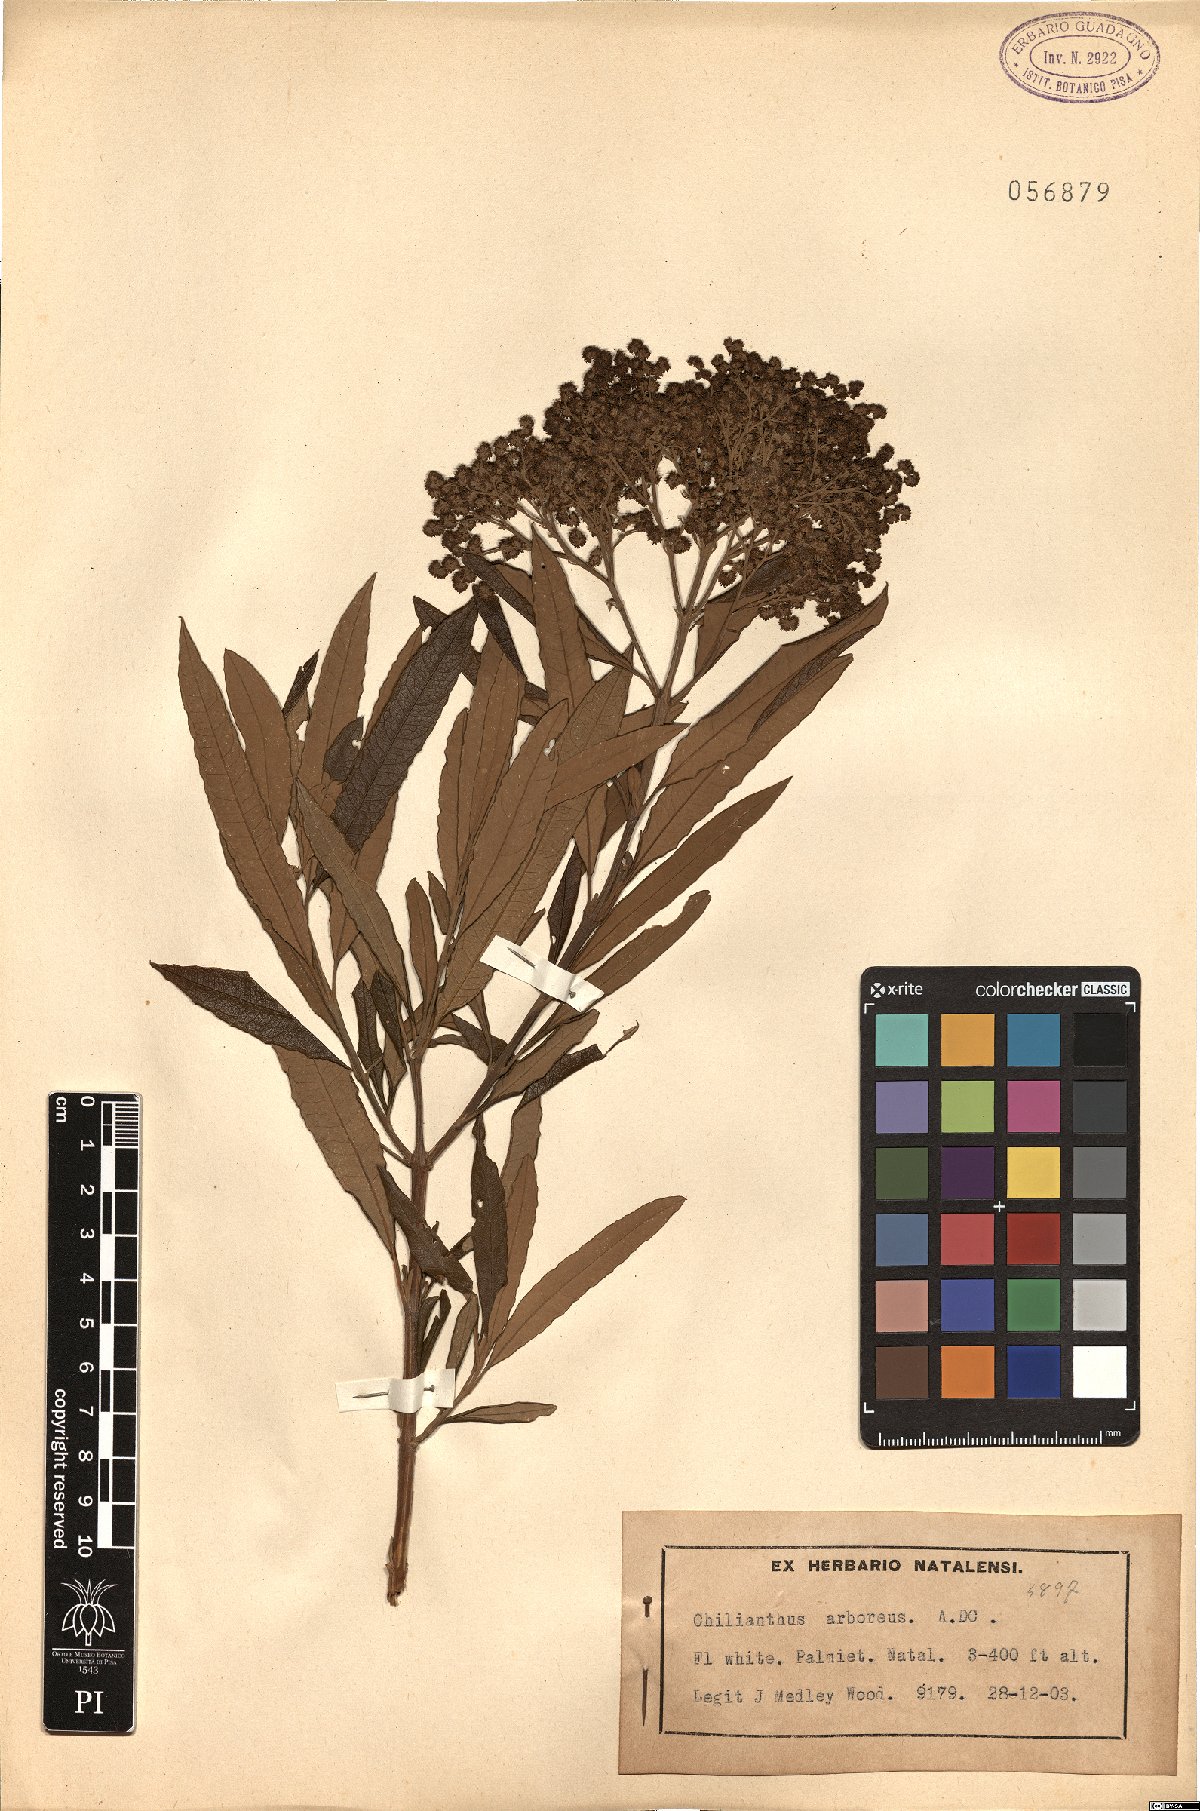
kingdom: Plantae
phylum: Tracheophyta
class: Magnoliopsida
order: Lamiales
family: Scrophulariaceae
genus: Buddleja
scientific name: Buddleja saligna
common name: False olive
